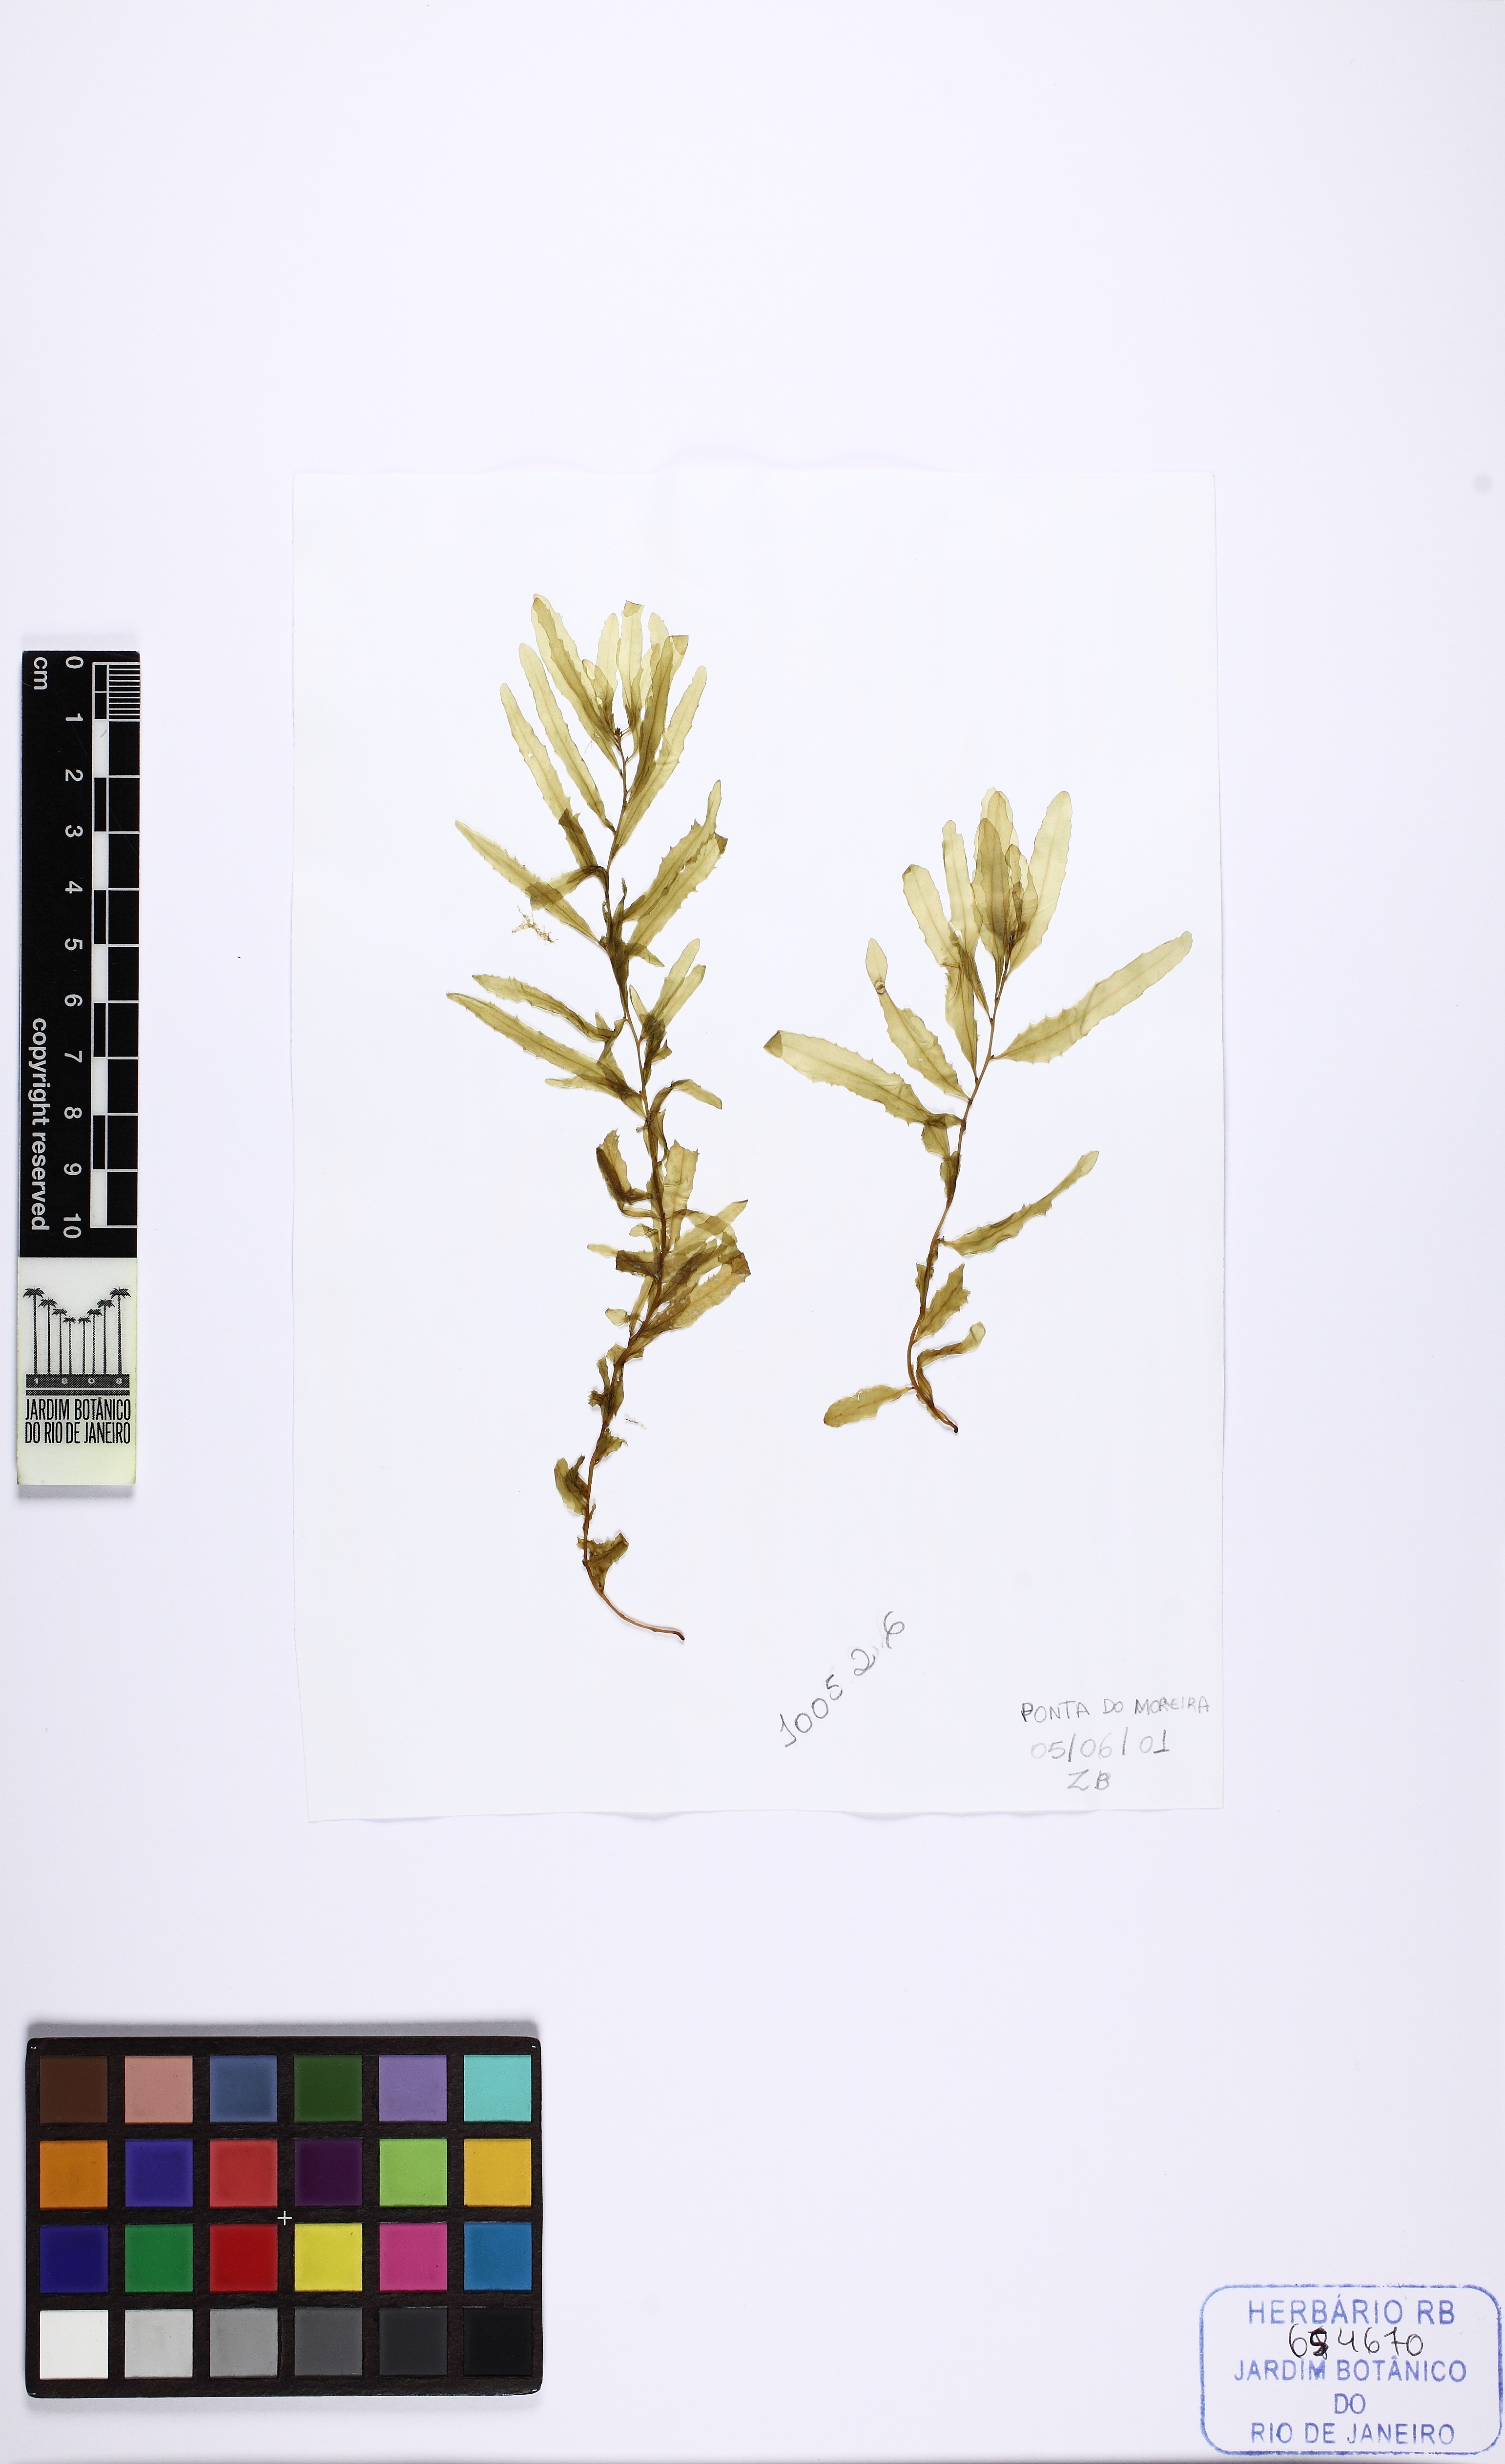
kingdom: Chromista
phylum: Ochrophyta
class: Phaeophyceae
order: Fucales
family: Sargassaceae
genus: Sargassum
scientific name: Sargassum
